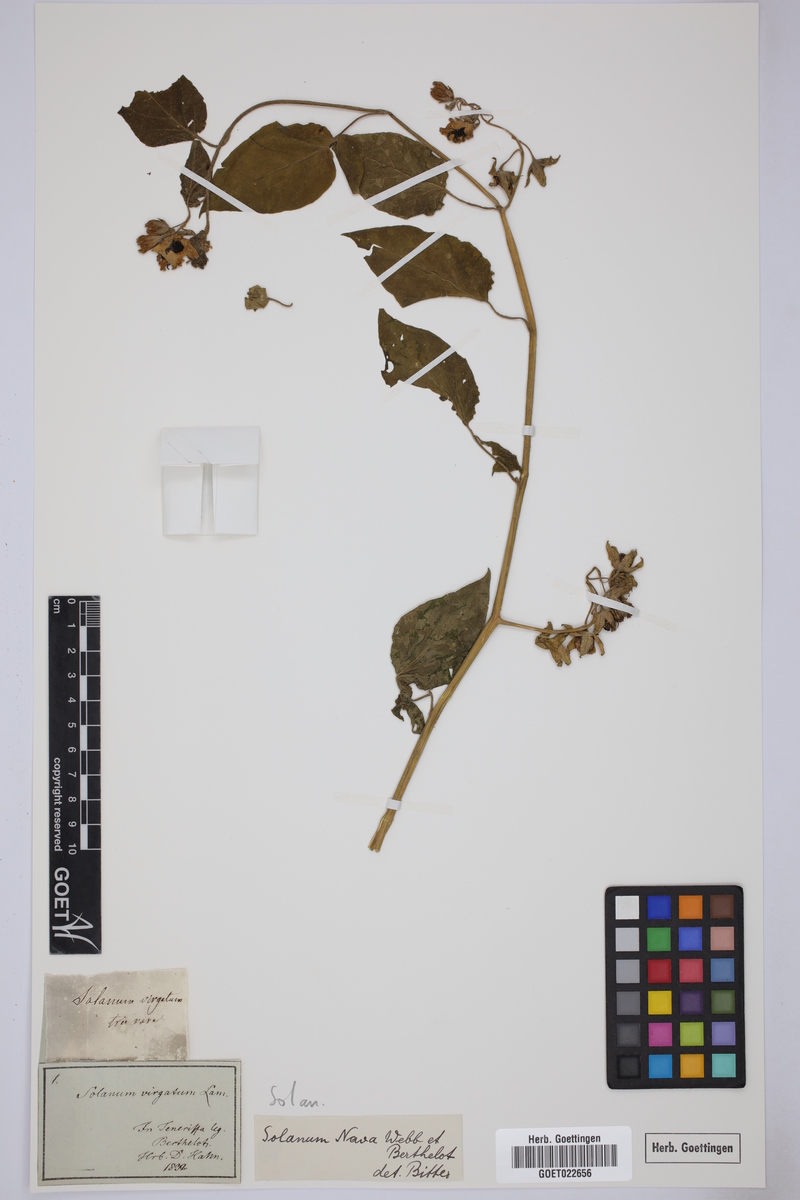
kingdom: Plantae
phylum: Tracheophyta
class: Magnoliopsida
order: Solanales
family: Solanaceae
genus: Solanum
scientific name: Solanum nava
